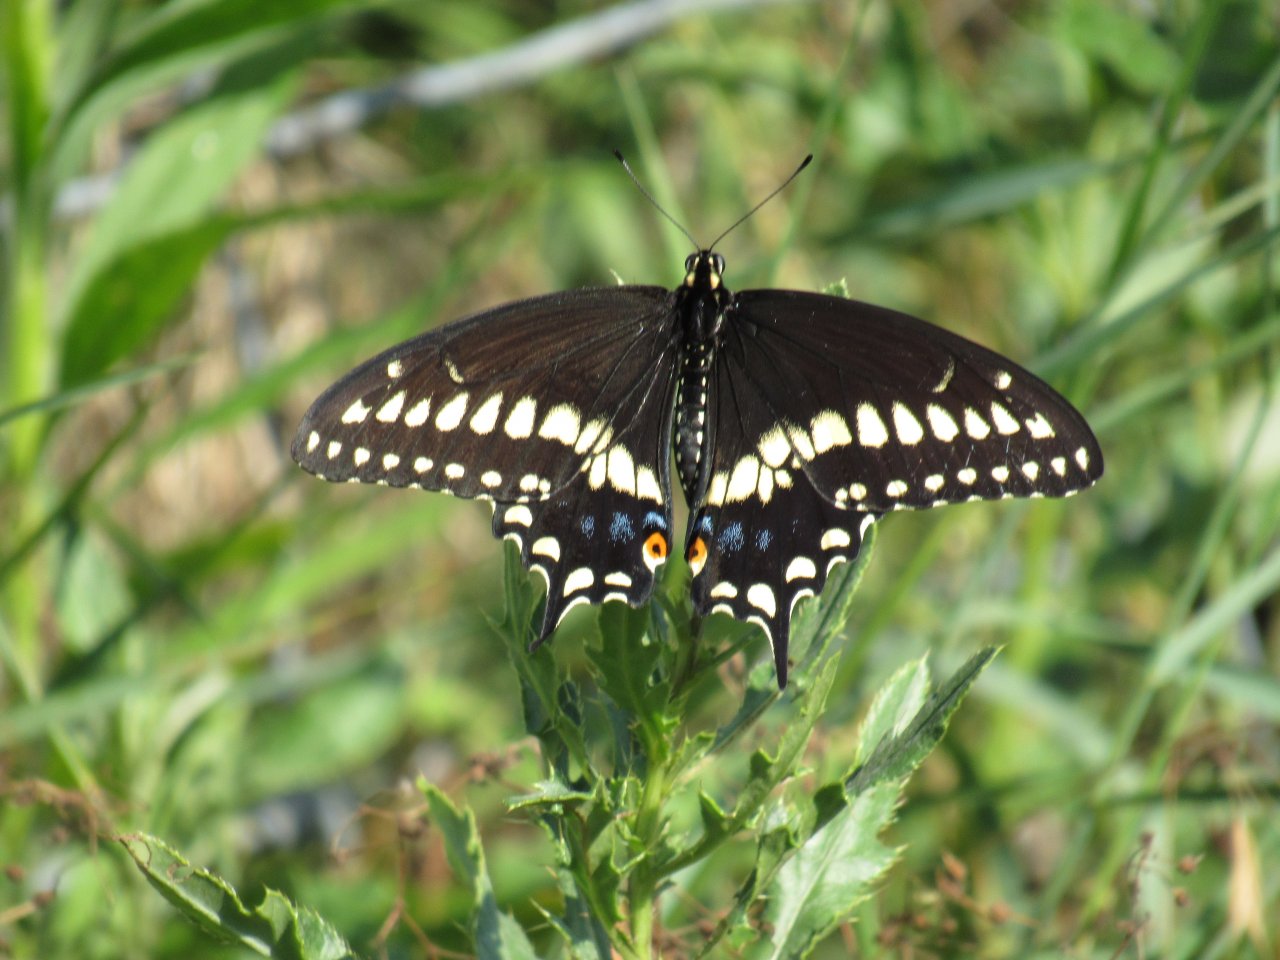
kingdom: Animalia
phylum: Arthropoda
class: Insecta
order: Lepidoptera
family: Papilionidae
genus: Papilio
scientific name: Papilio polyxenes
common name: Black Swallowtail
